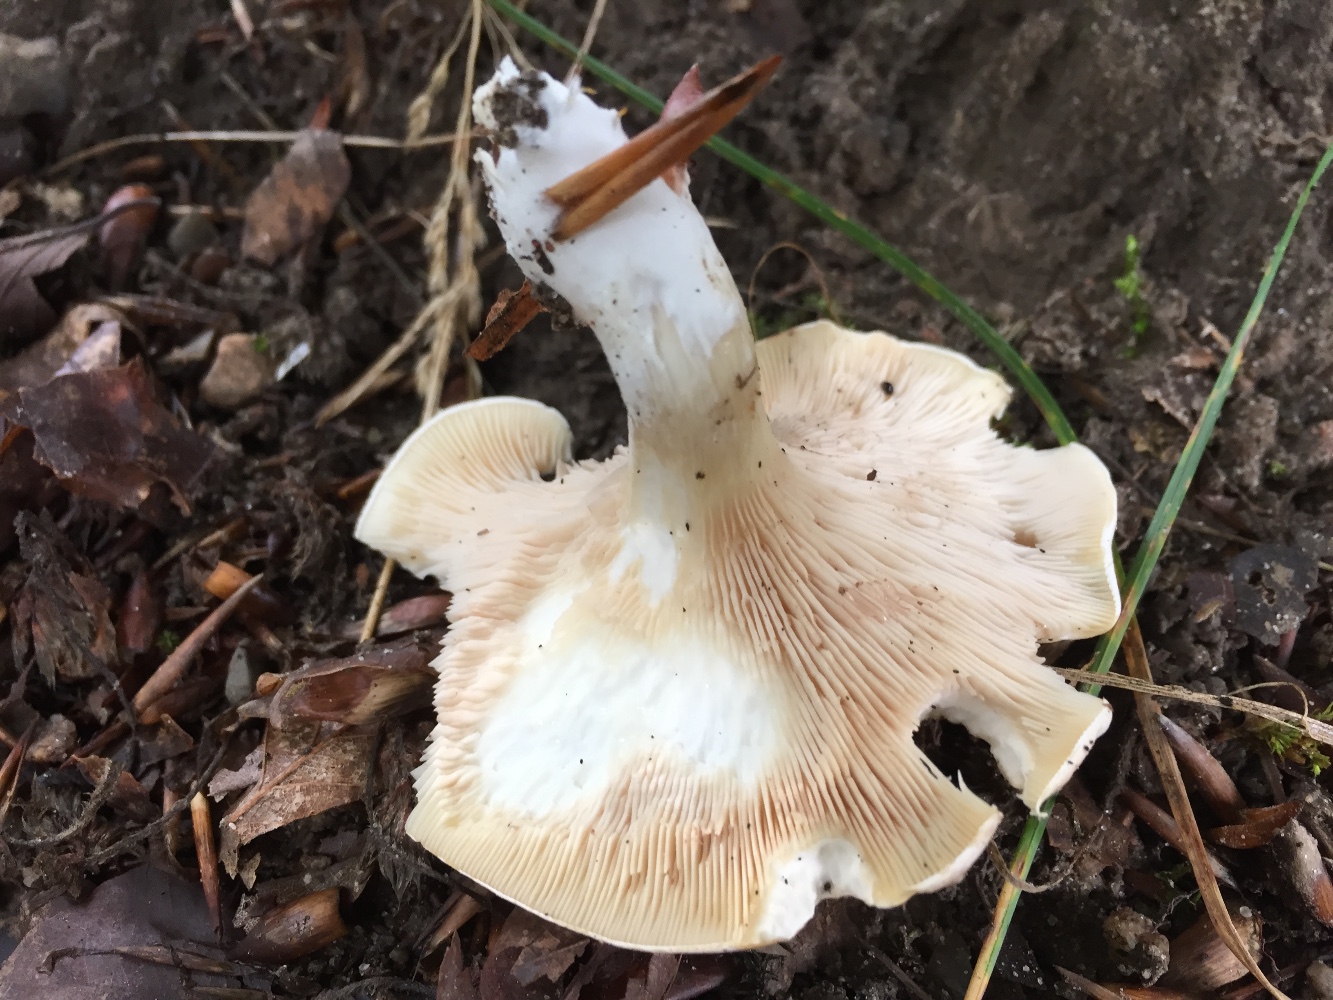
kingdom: Fungi
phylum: Basidiomycota
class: Agaricomycetes
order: Agaricales
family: Entolomataceae
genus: Clitopilus
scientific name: Clitopilus prunulus
